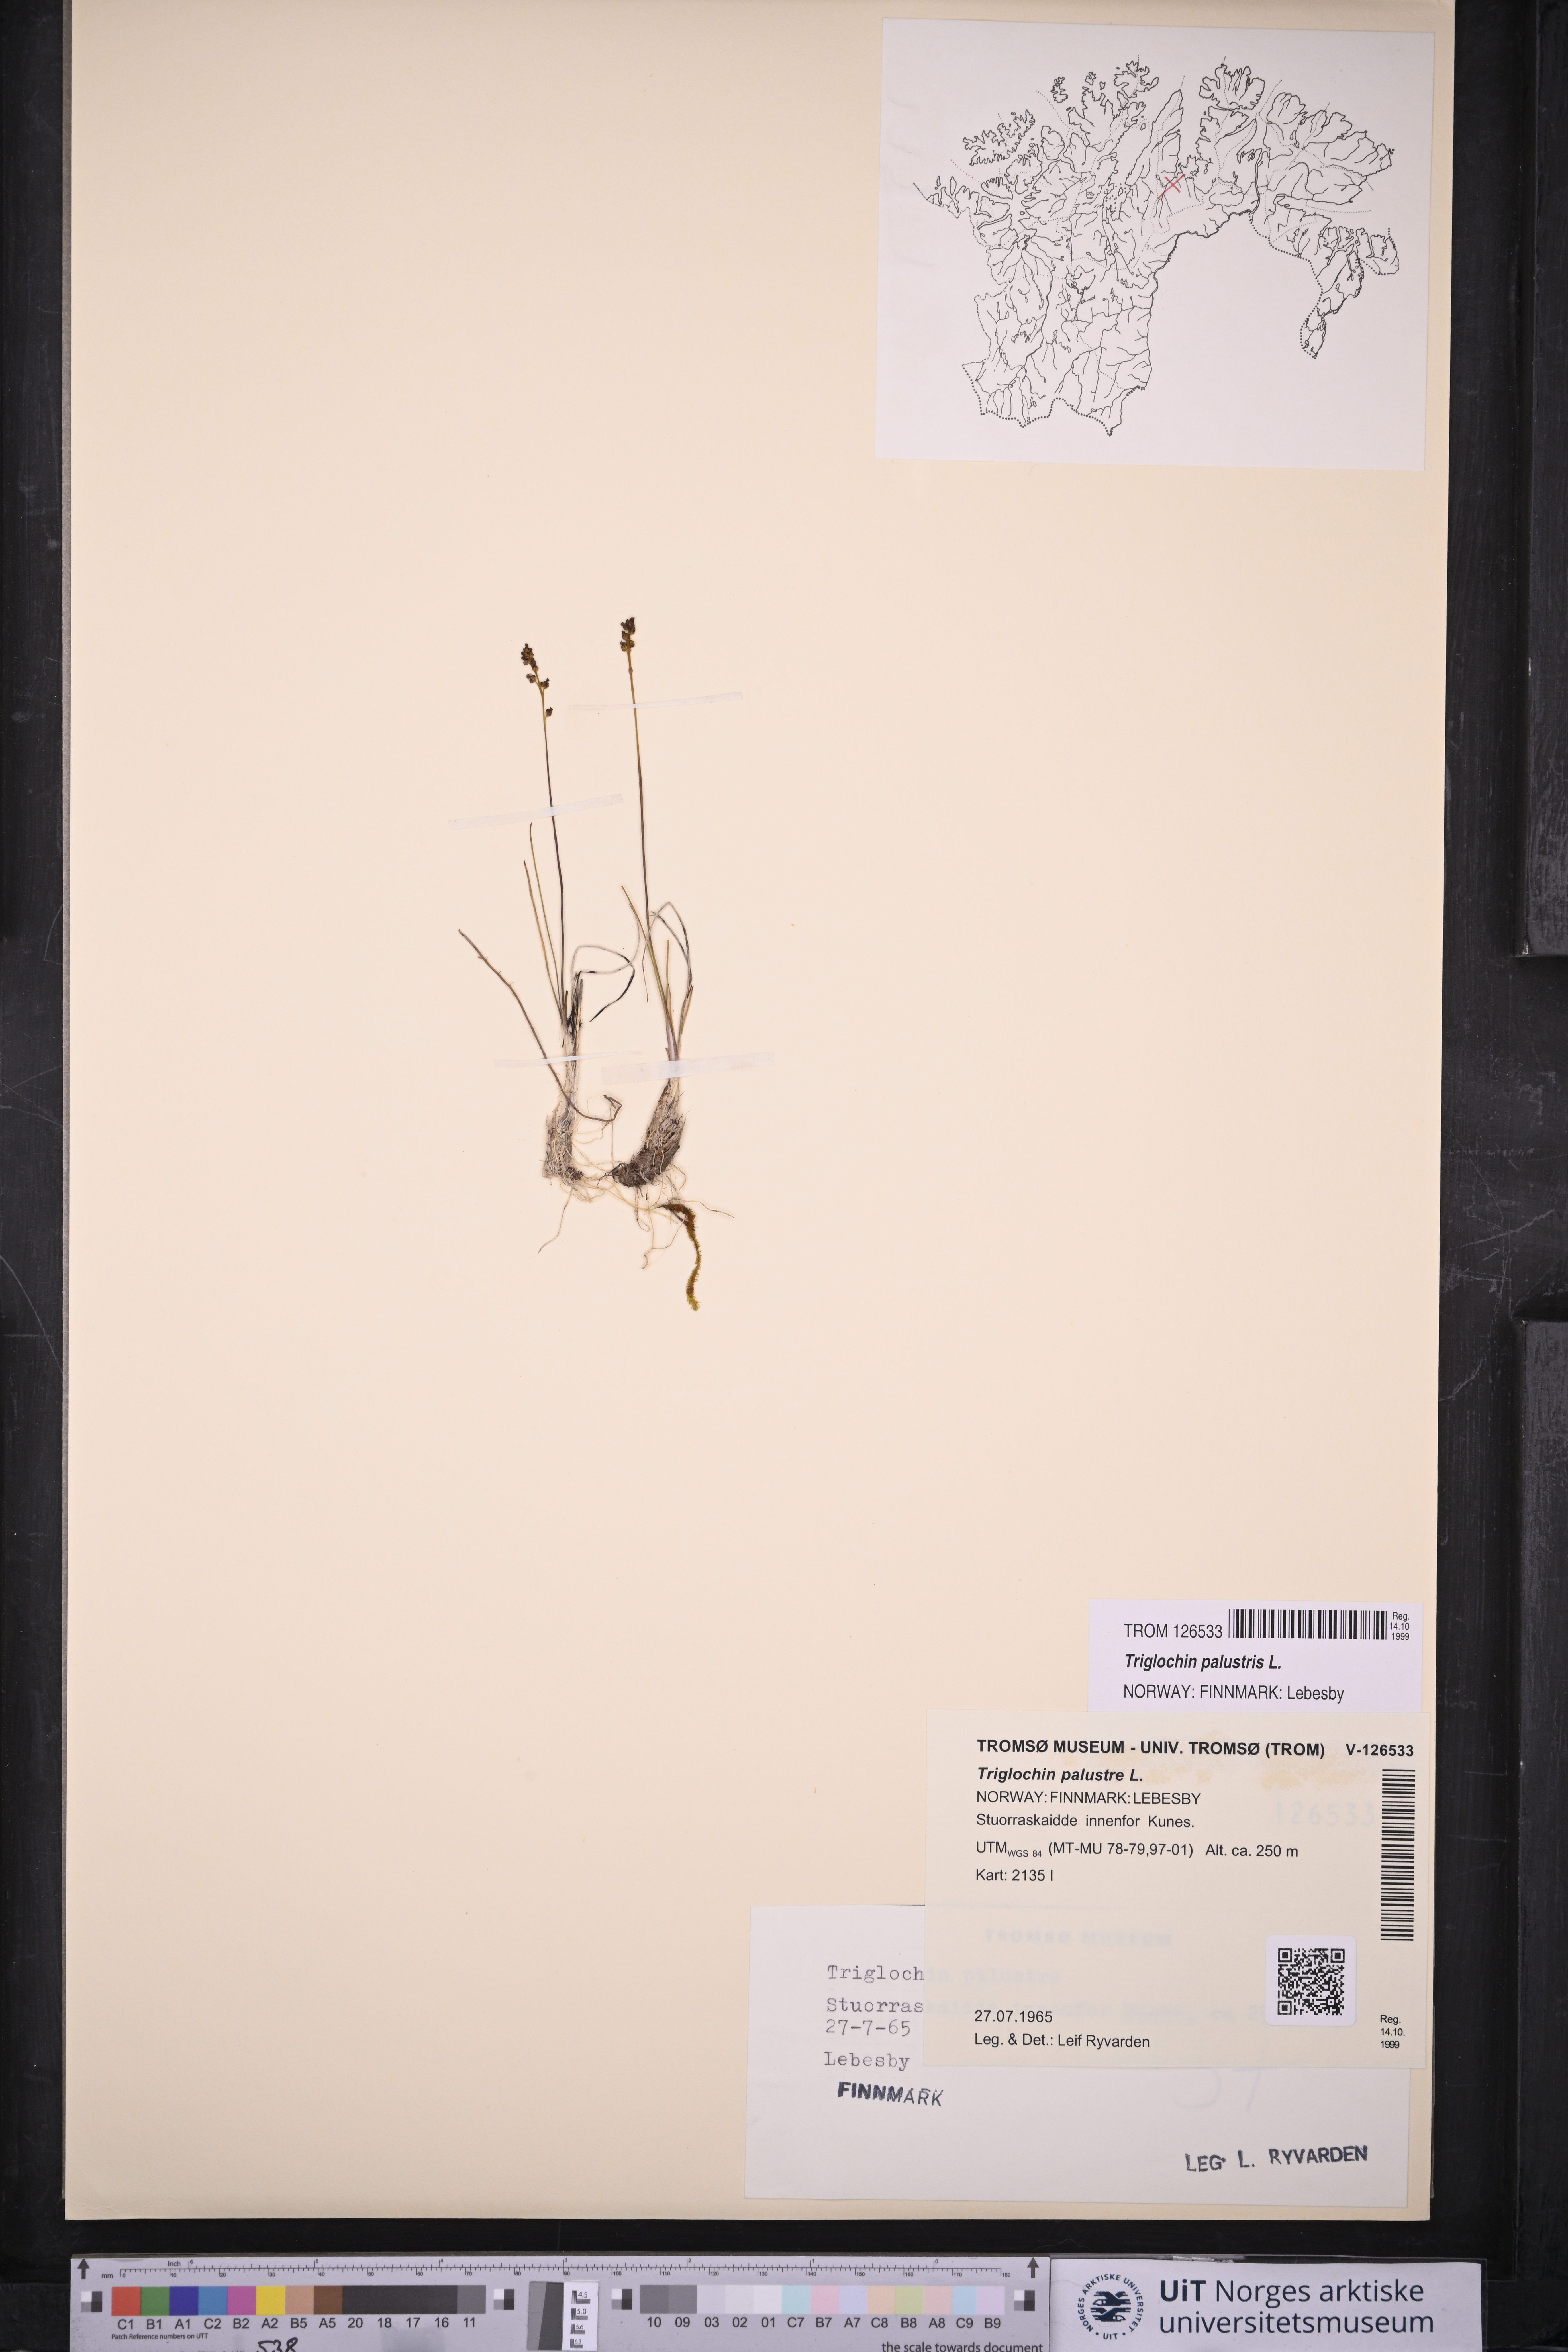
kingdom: Plantae
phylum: Tracheophyta
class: Liliopsida
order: Alismatales
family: Juncaginaceae
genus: Triglochin
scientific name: Triglochin palustris
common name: Marsh arrowgrass
